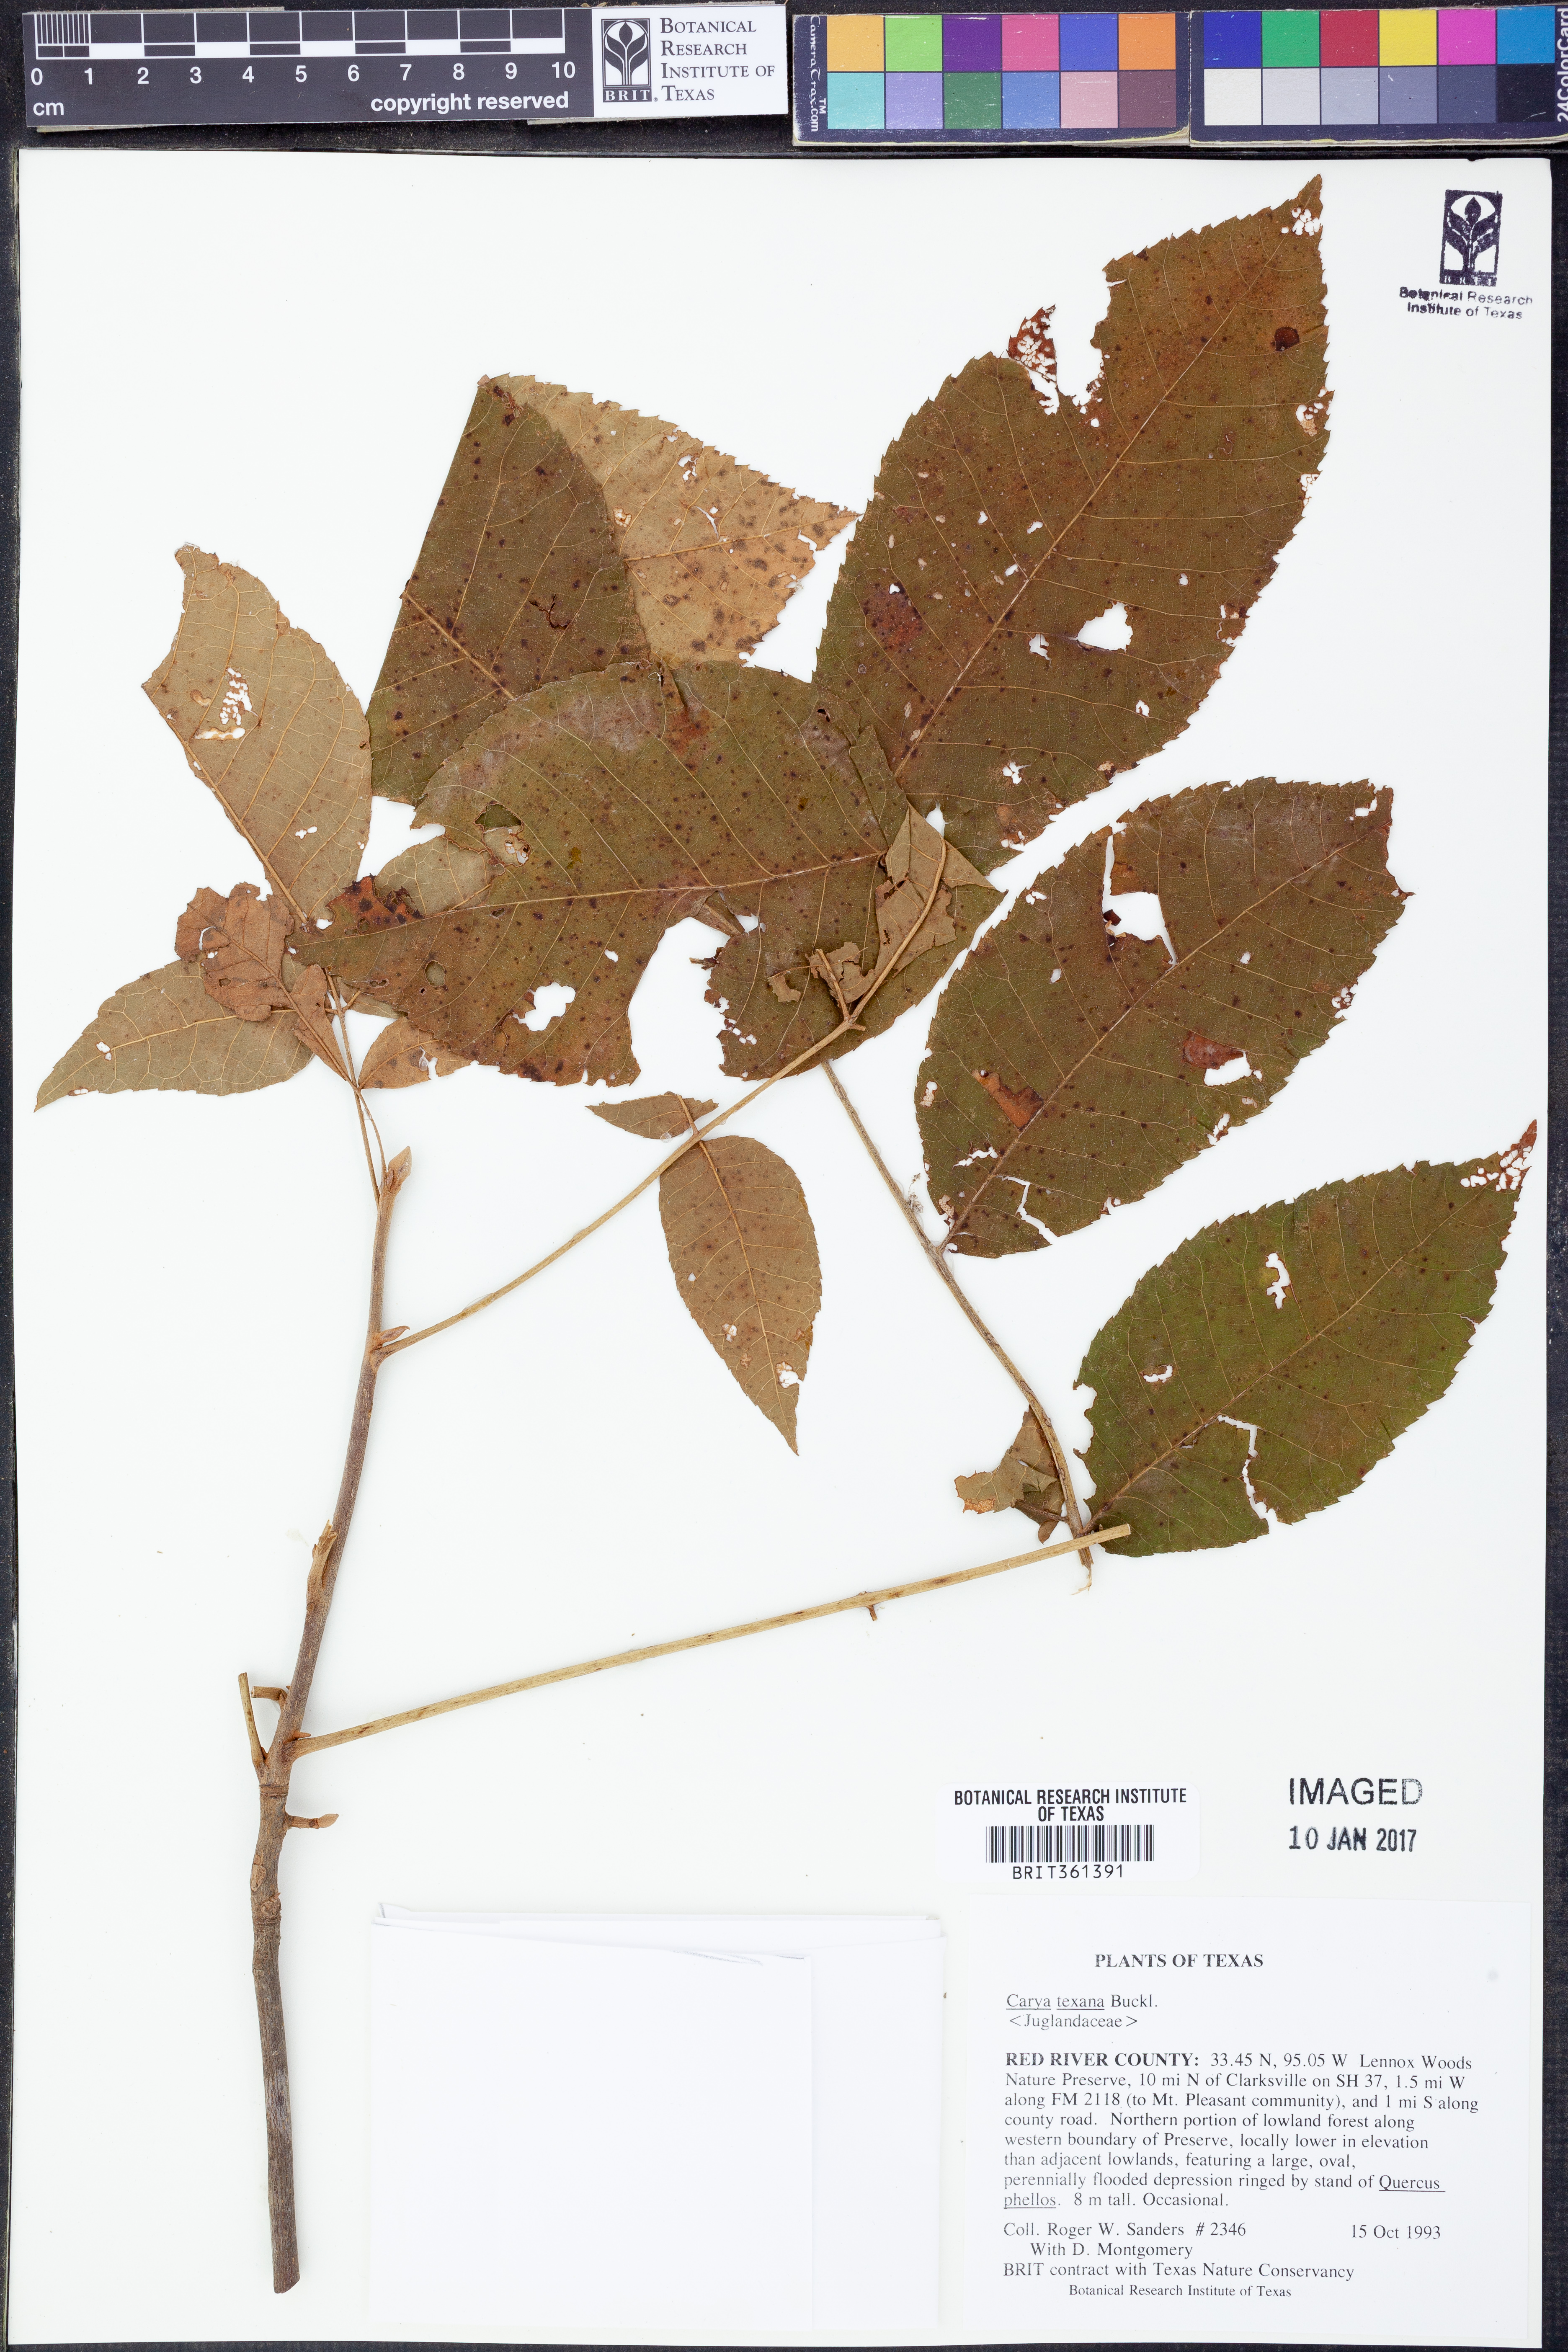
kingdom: Plantae
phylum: Tracheophyta
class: Magnoliopsida
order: Fagales
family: Juglandaceae
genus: Carya
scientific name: Carya texana
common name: Black hickory
